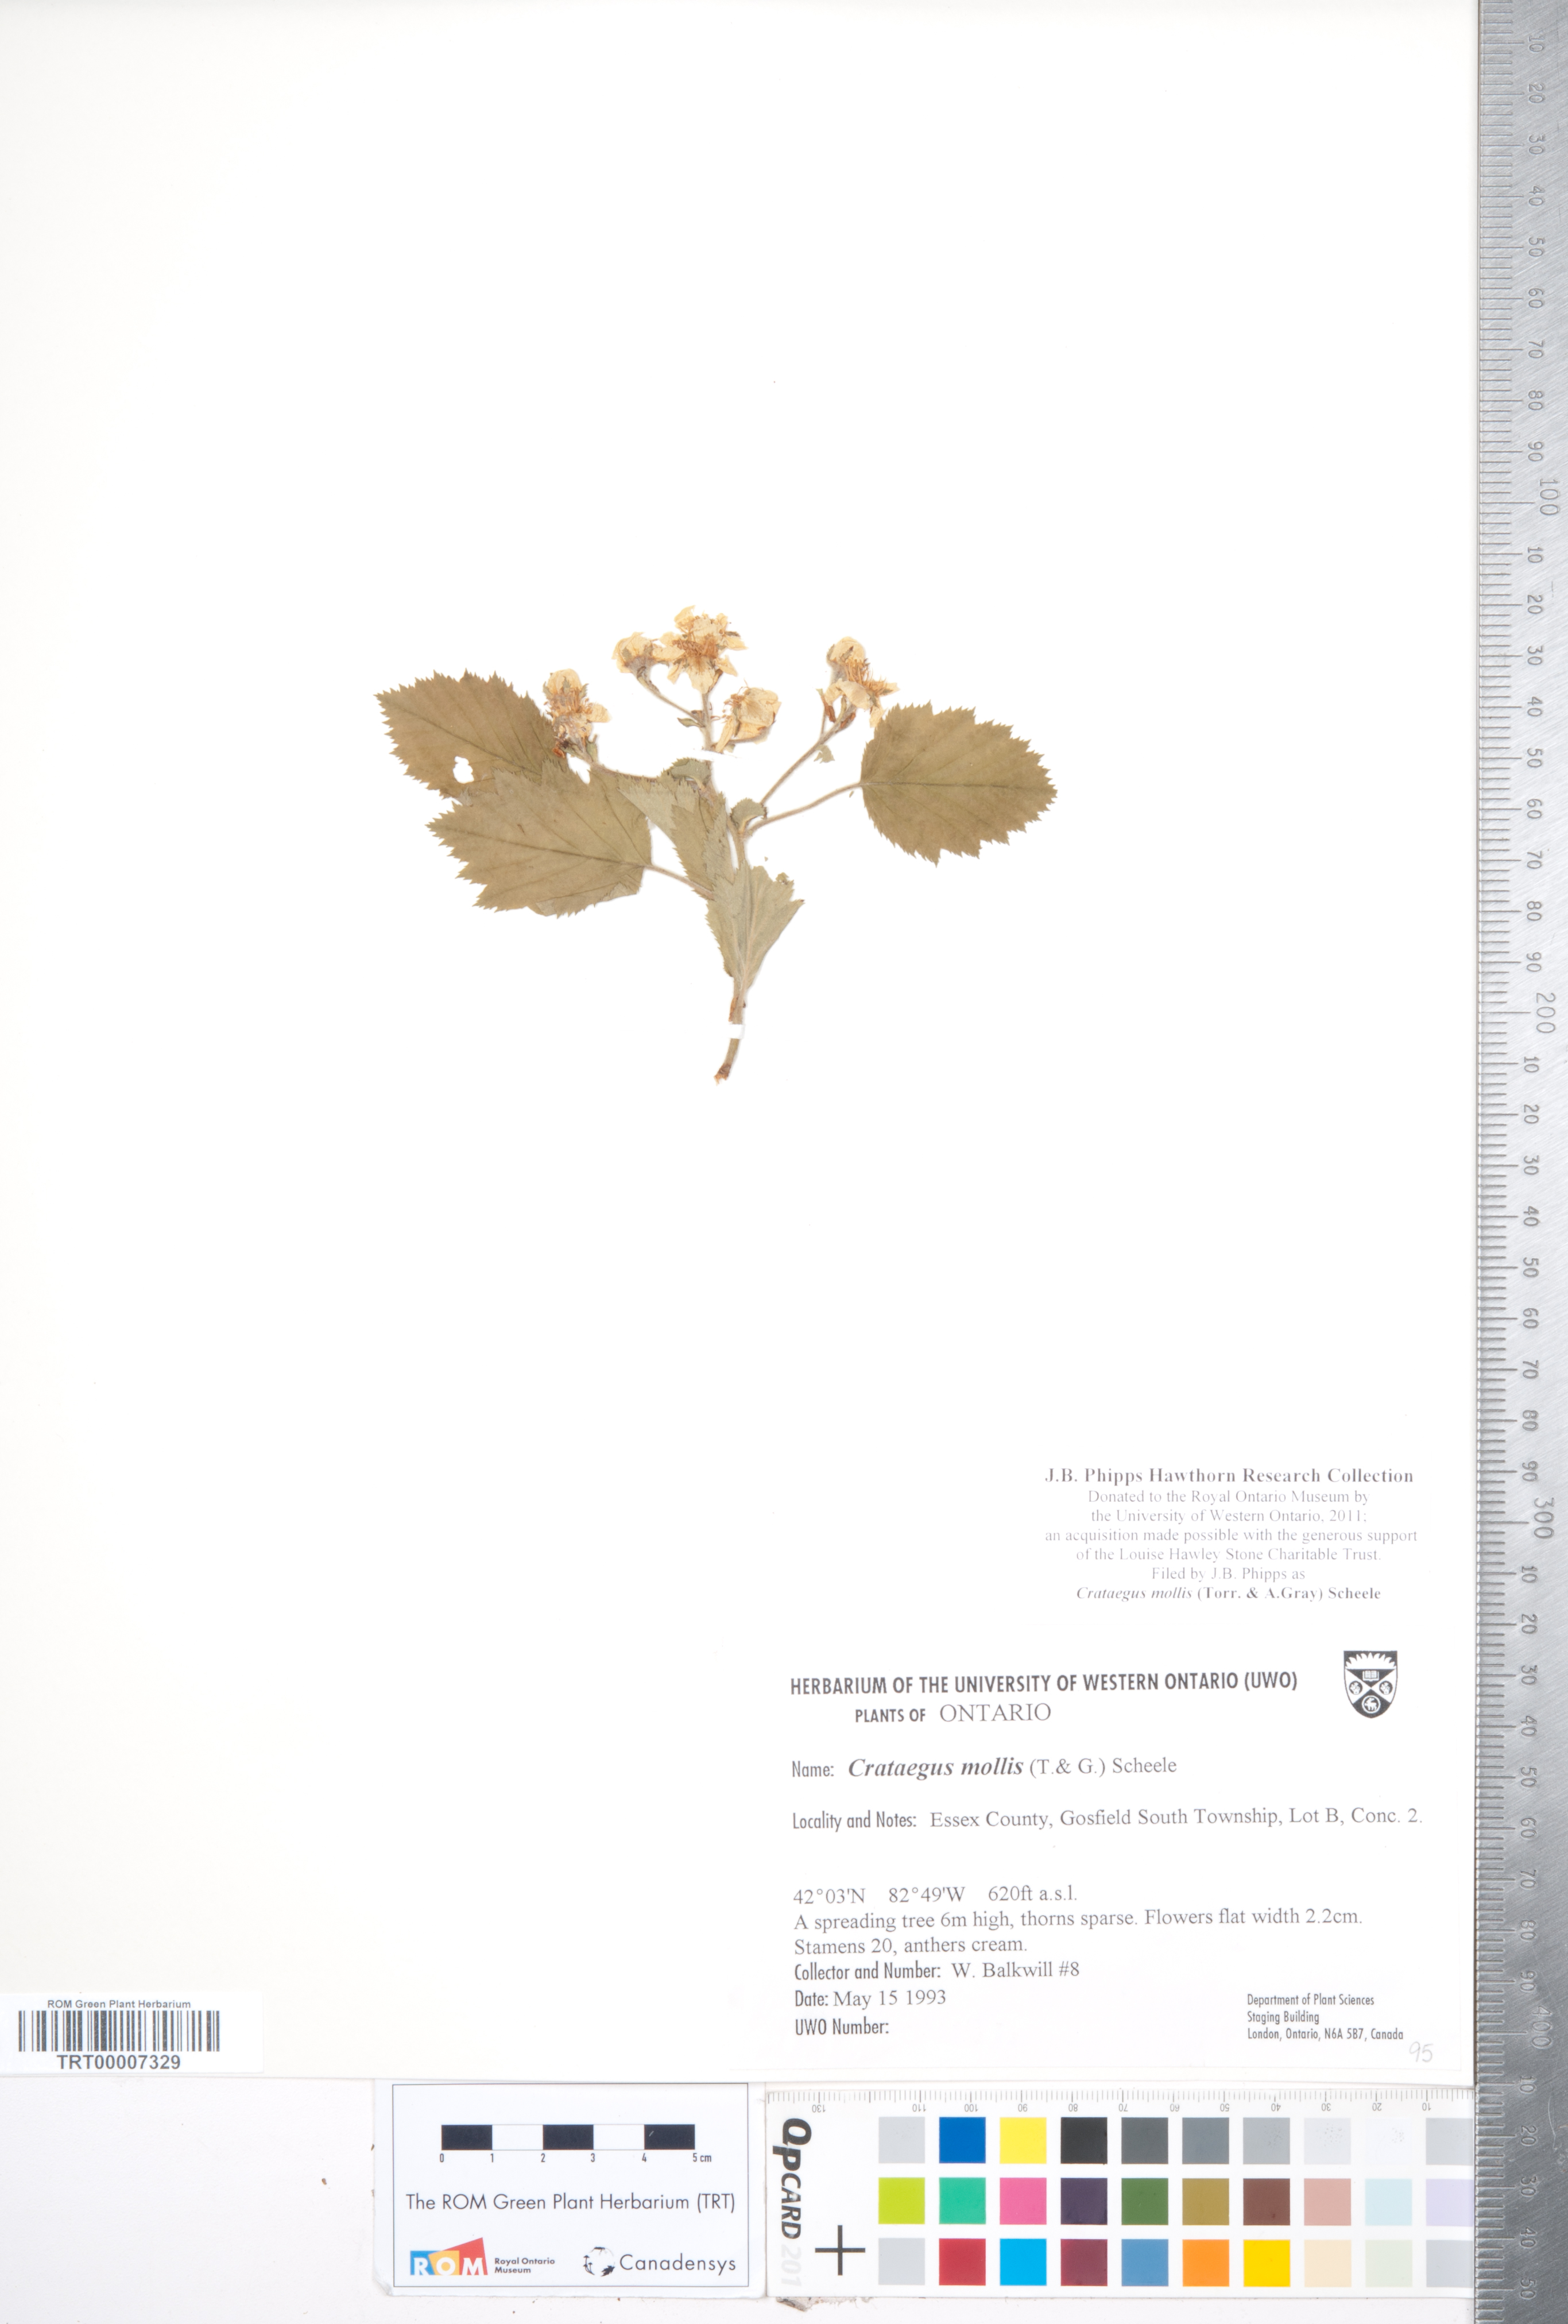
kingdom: Plantae
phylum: Tracheophyta
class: Magnoliopsida
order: Rosales
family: Rosaceae
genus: Crataegus
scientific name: Crataegus mollis
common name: Downy hawthorn
